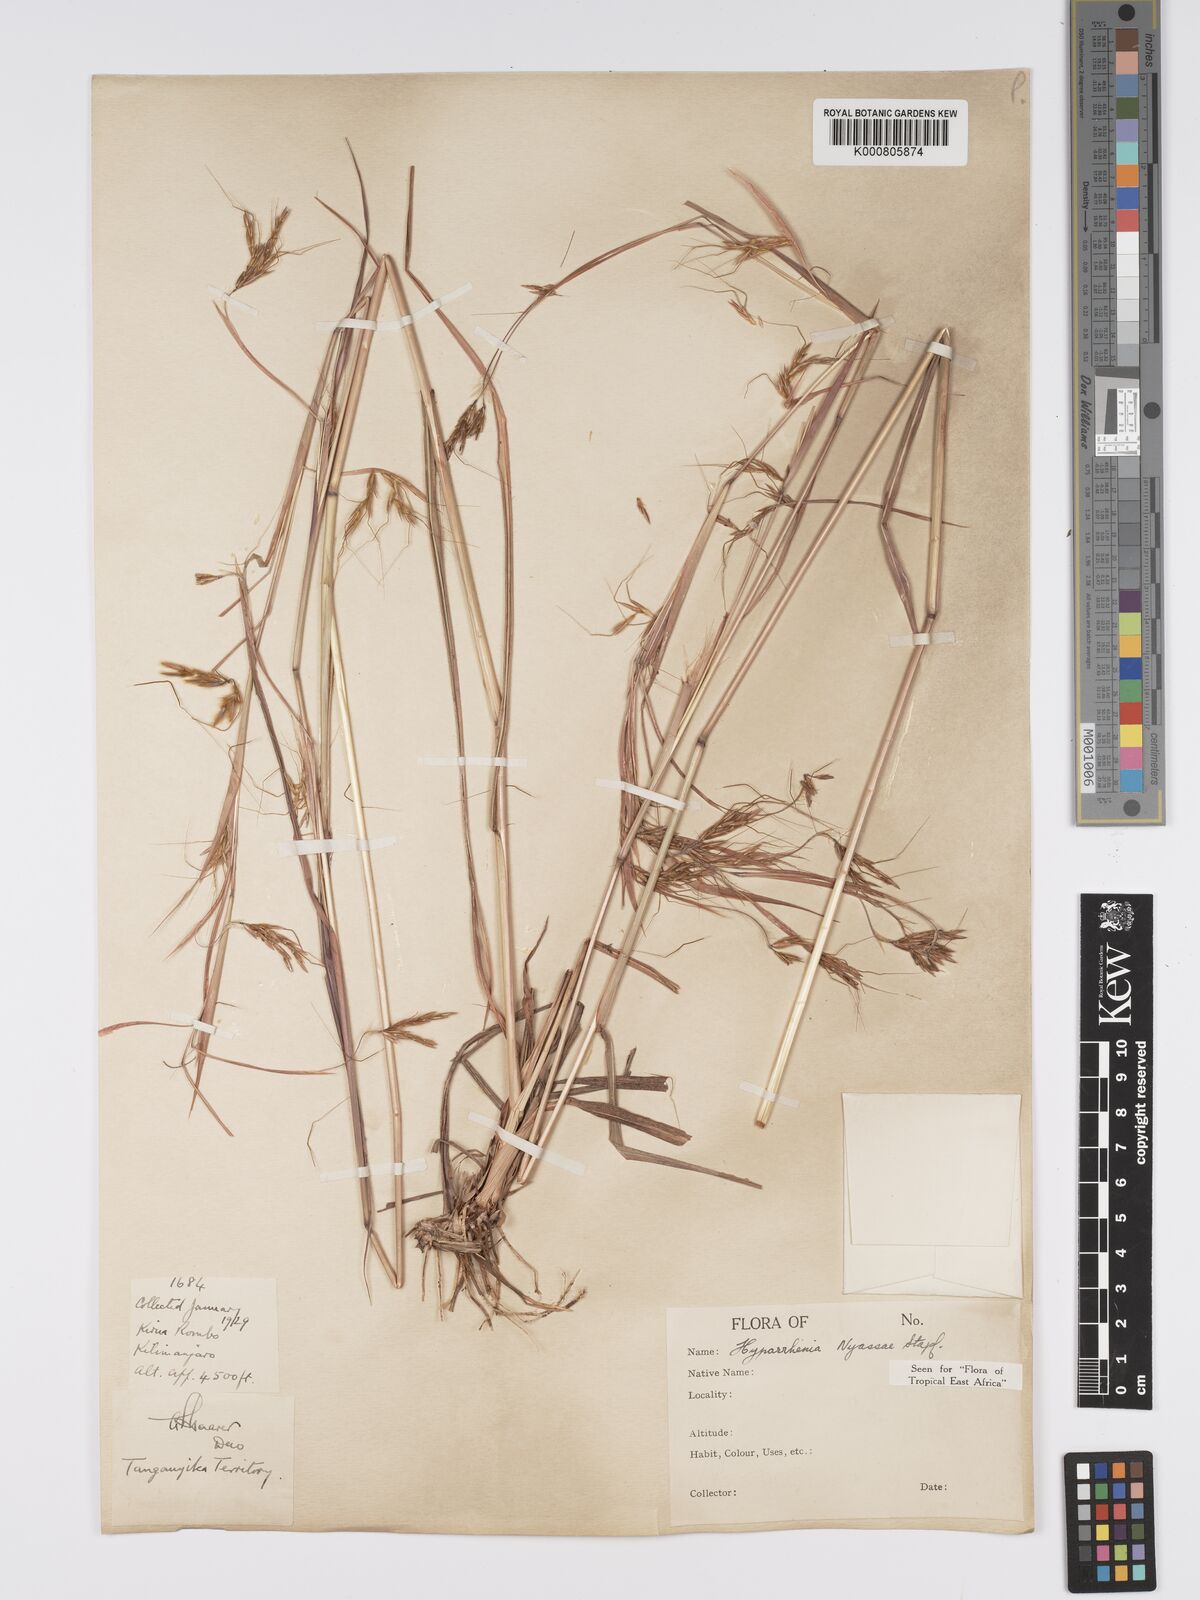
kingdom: Plantae
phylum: Tracheophyta
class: Liliopsida
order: Poales
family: Poaceae
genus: Hyparrhenia
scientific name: Hyparrhenia nyassae
